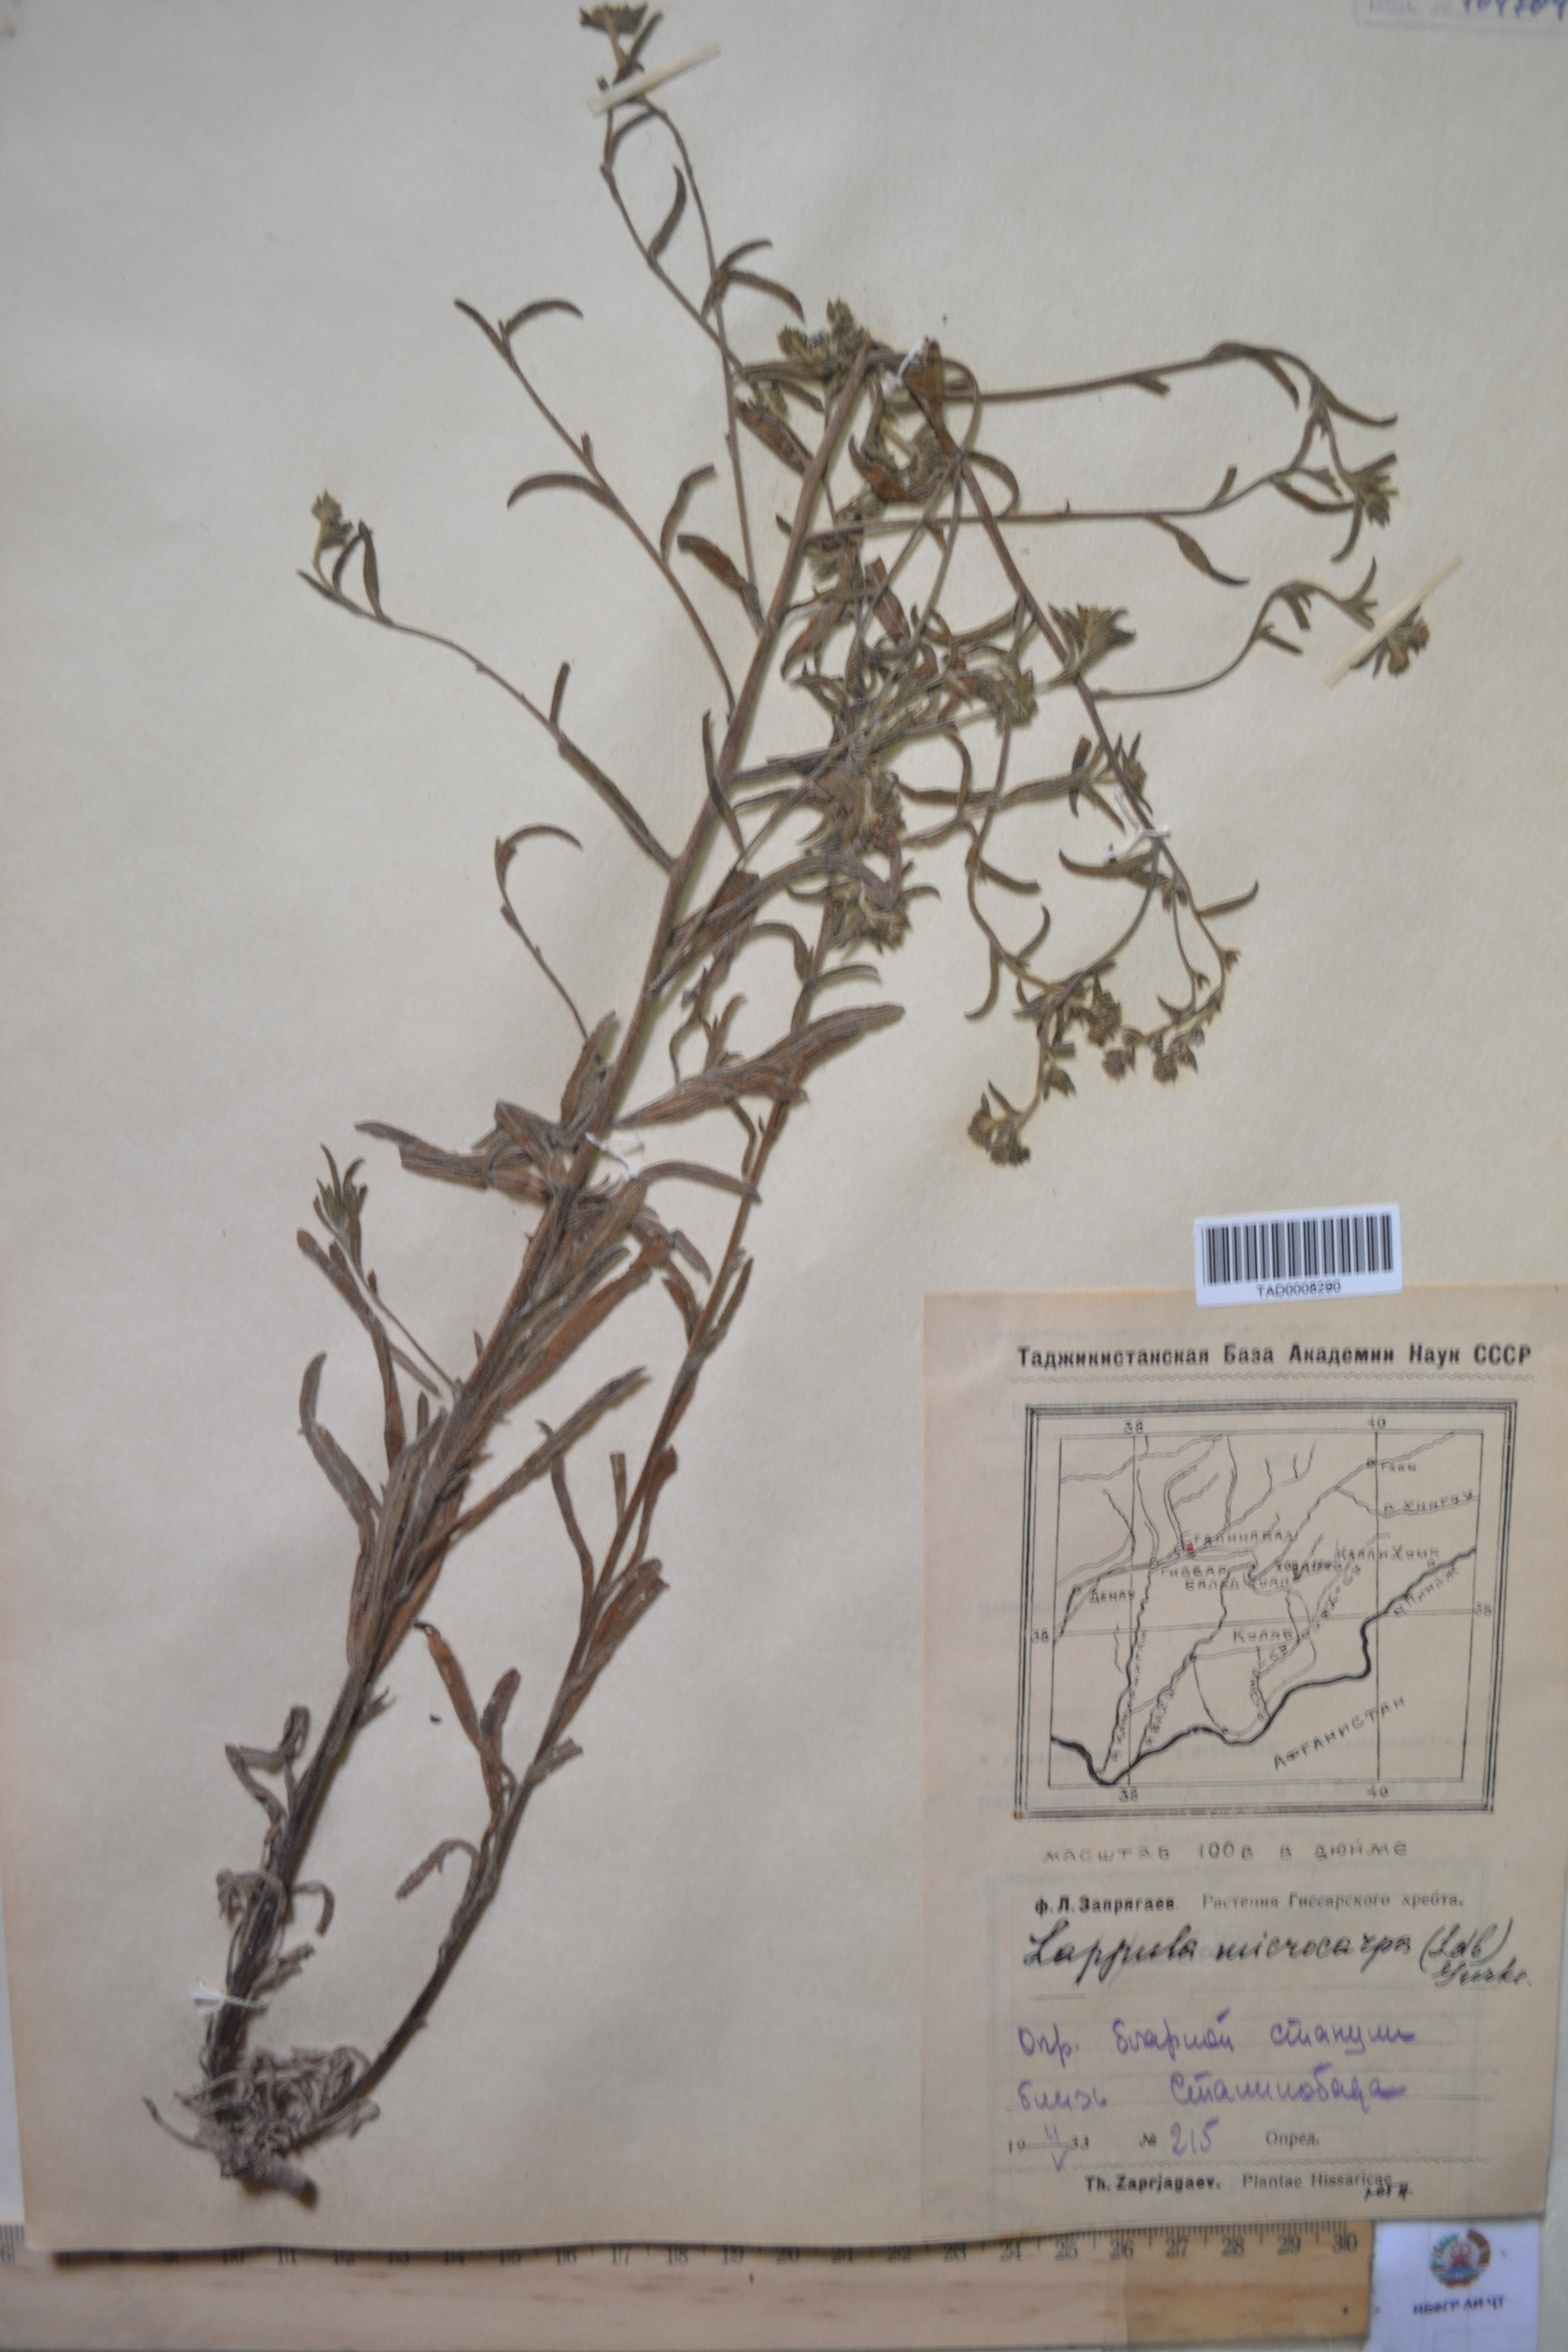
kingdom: Plantae
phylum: Tracheophyta
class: Magnoliopsida
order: Boraginales
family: Boraginaceae
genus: Lappula
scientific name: Lappula microcarpa
